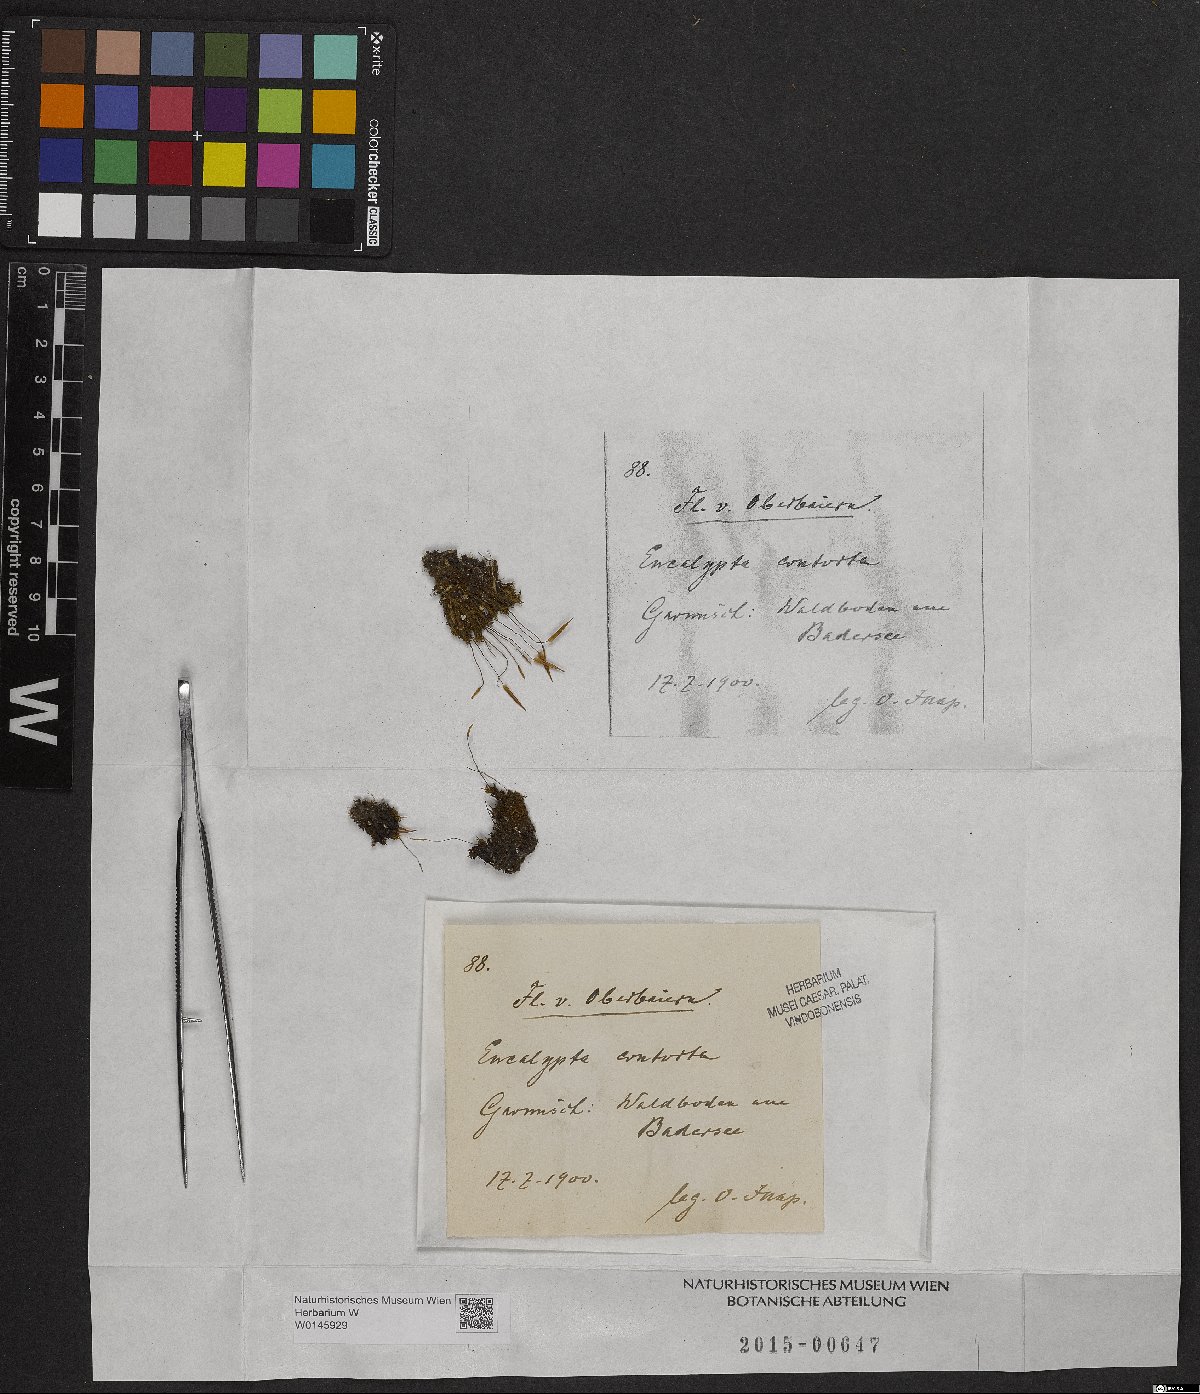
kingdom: Plantae
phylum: Bryophyta
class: Bryopsida
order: Encalyptales
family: Encalyptaceae
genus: Encalypta
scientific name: Encalypta streptocarpa
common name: Spiral extinguisher-moss
